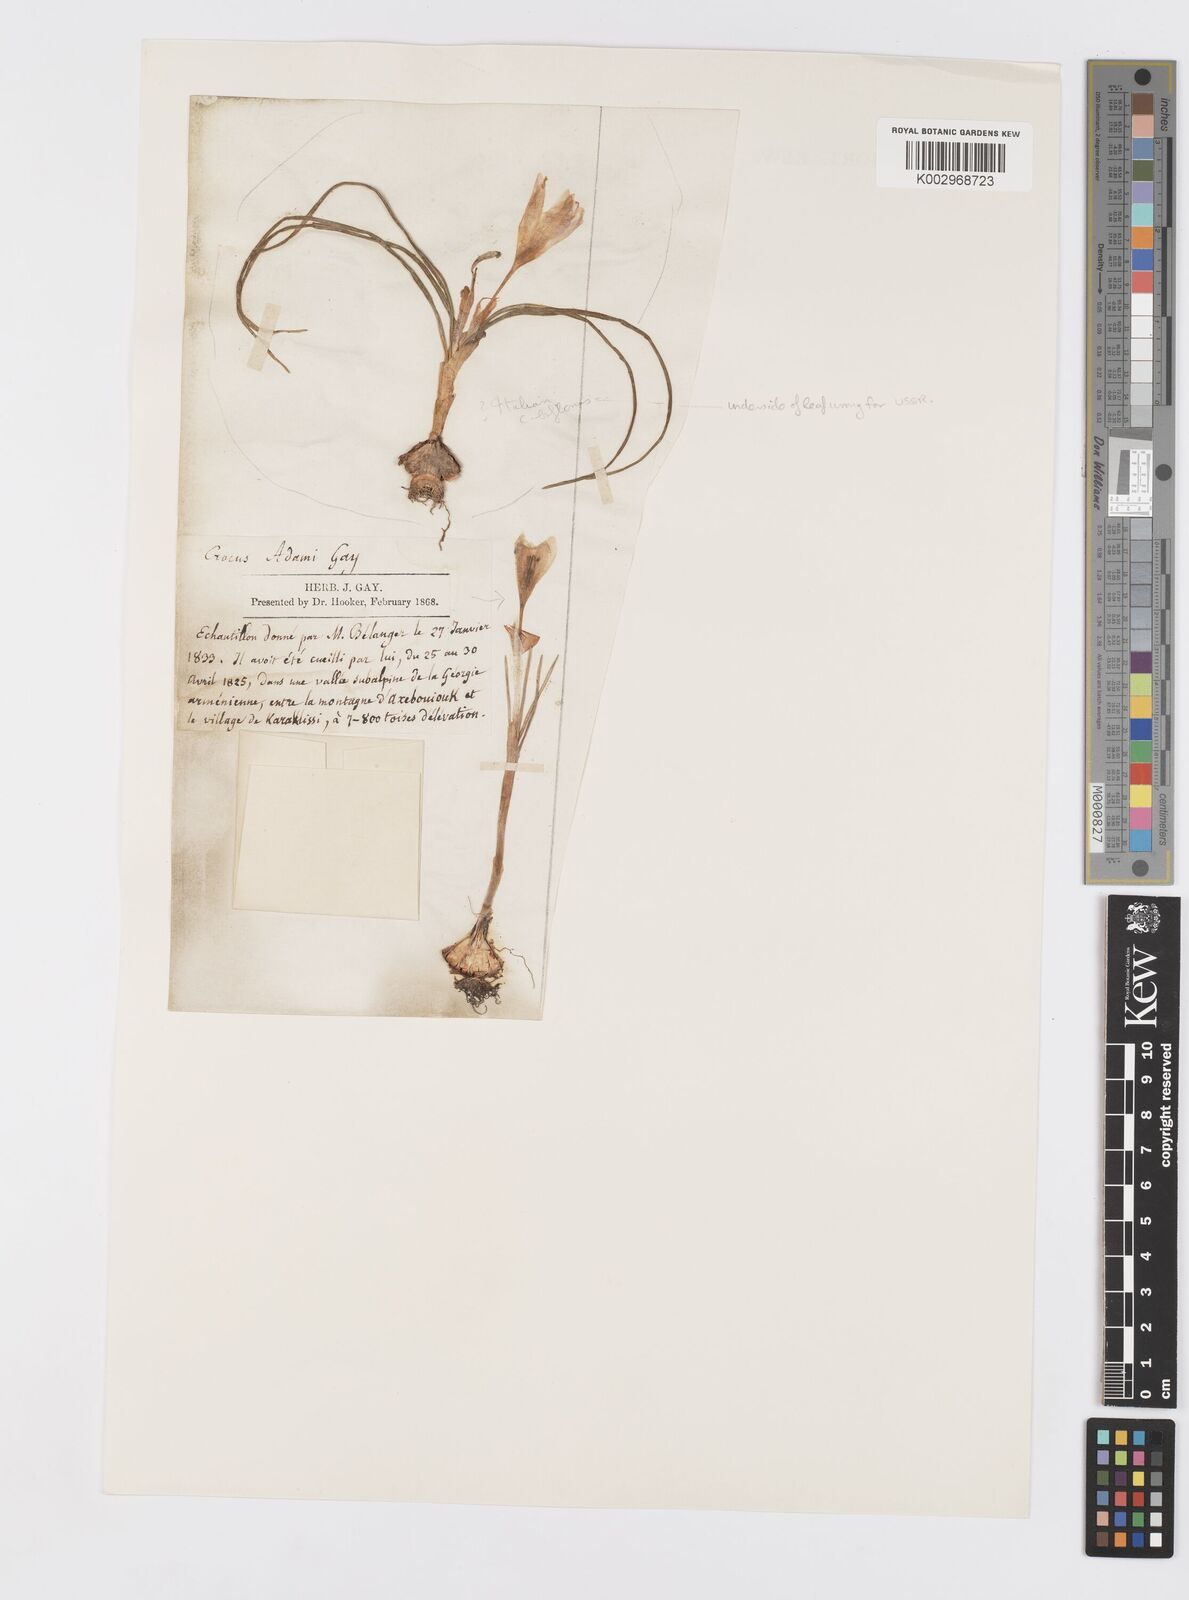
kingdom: Plantae
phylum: Tracheophyta
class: Liliopsida
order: Asparagales
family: Iridaceae
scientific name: Iridaceae
